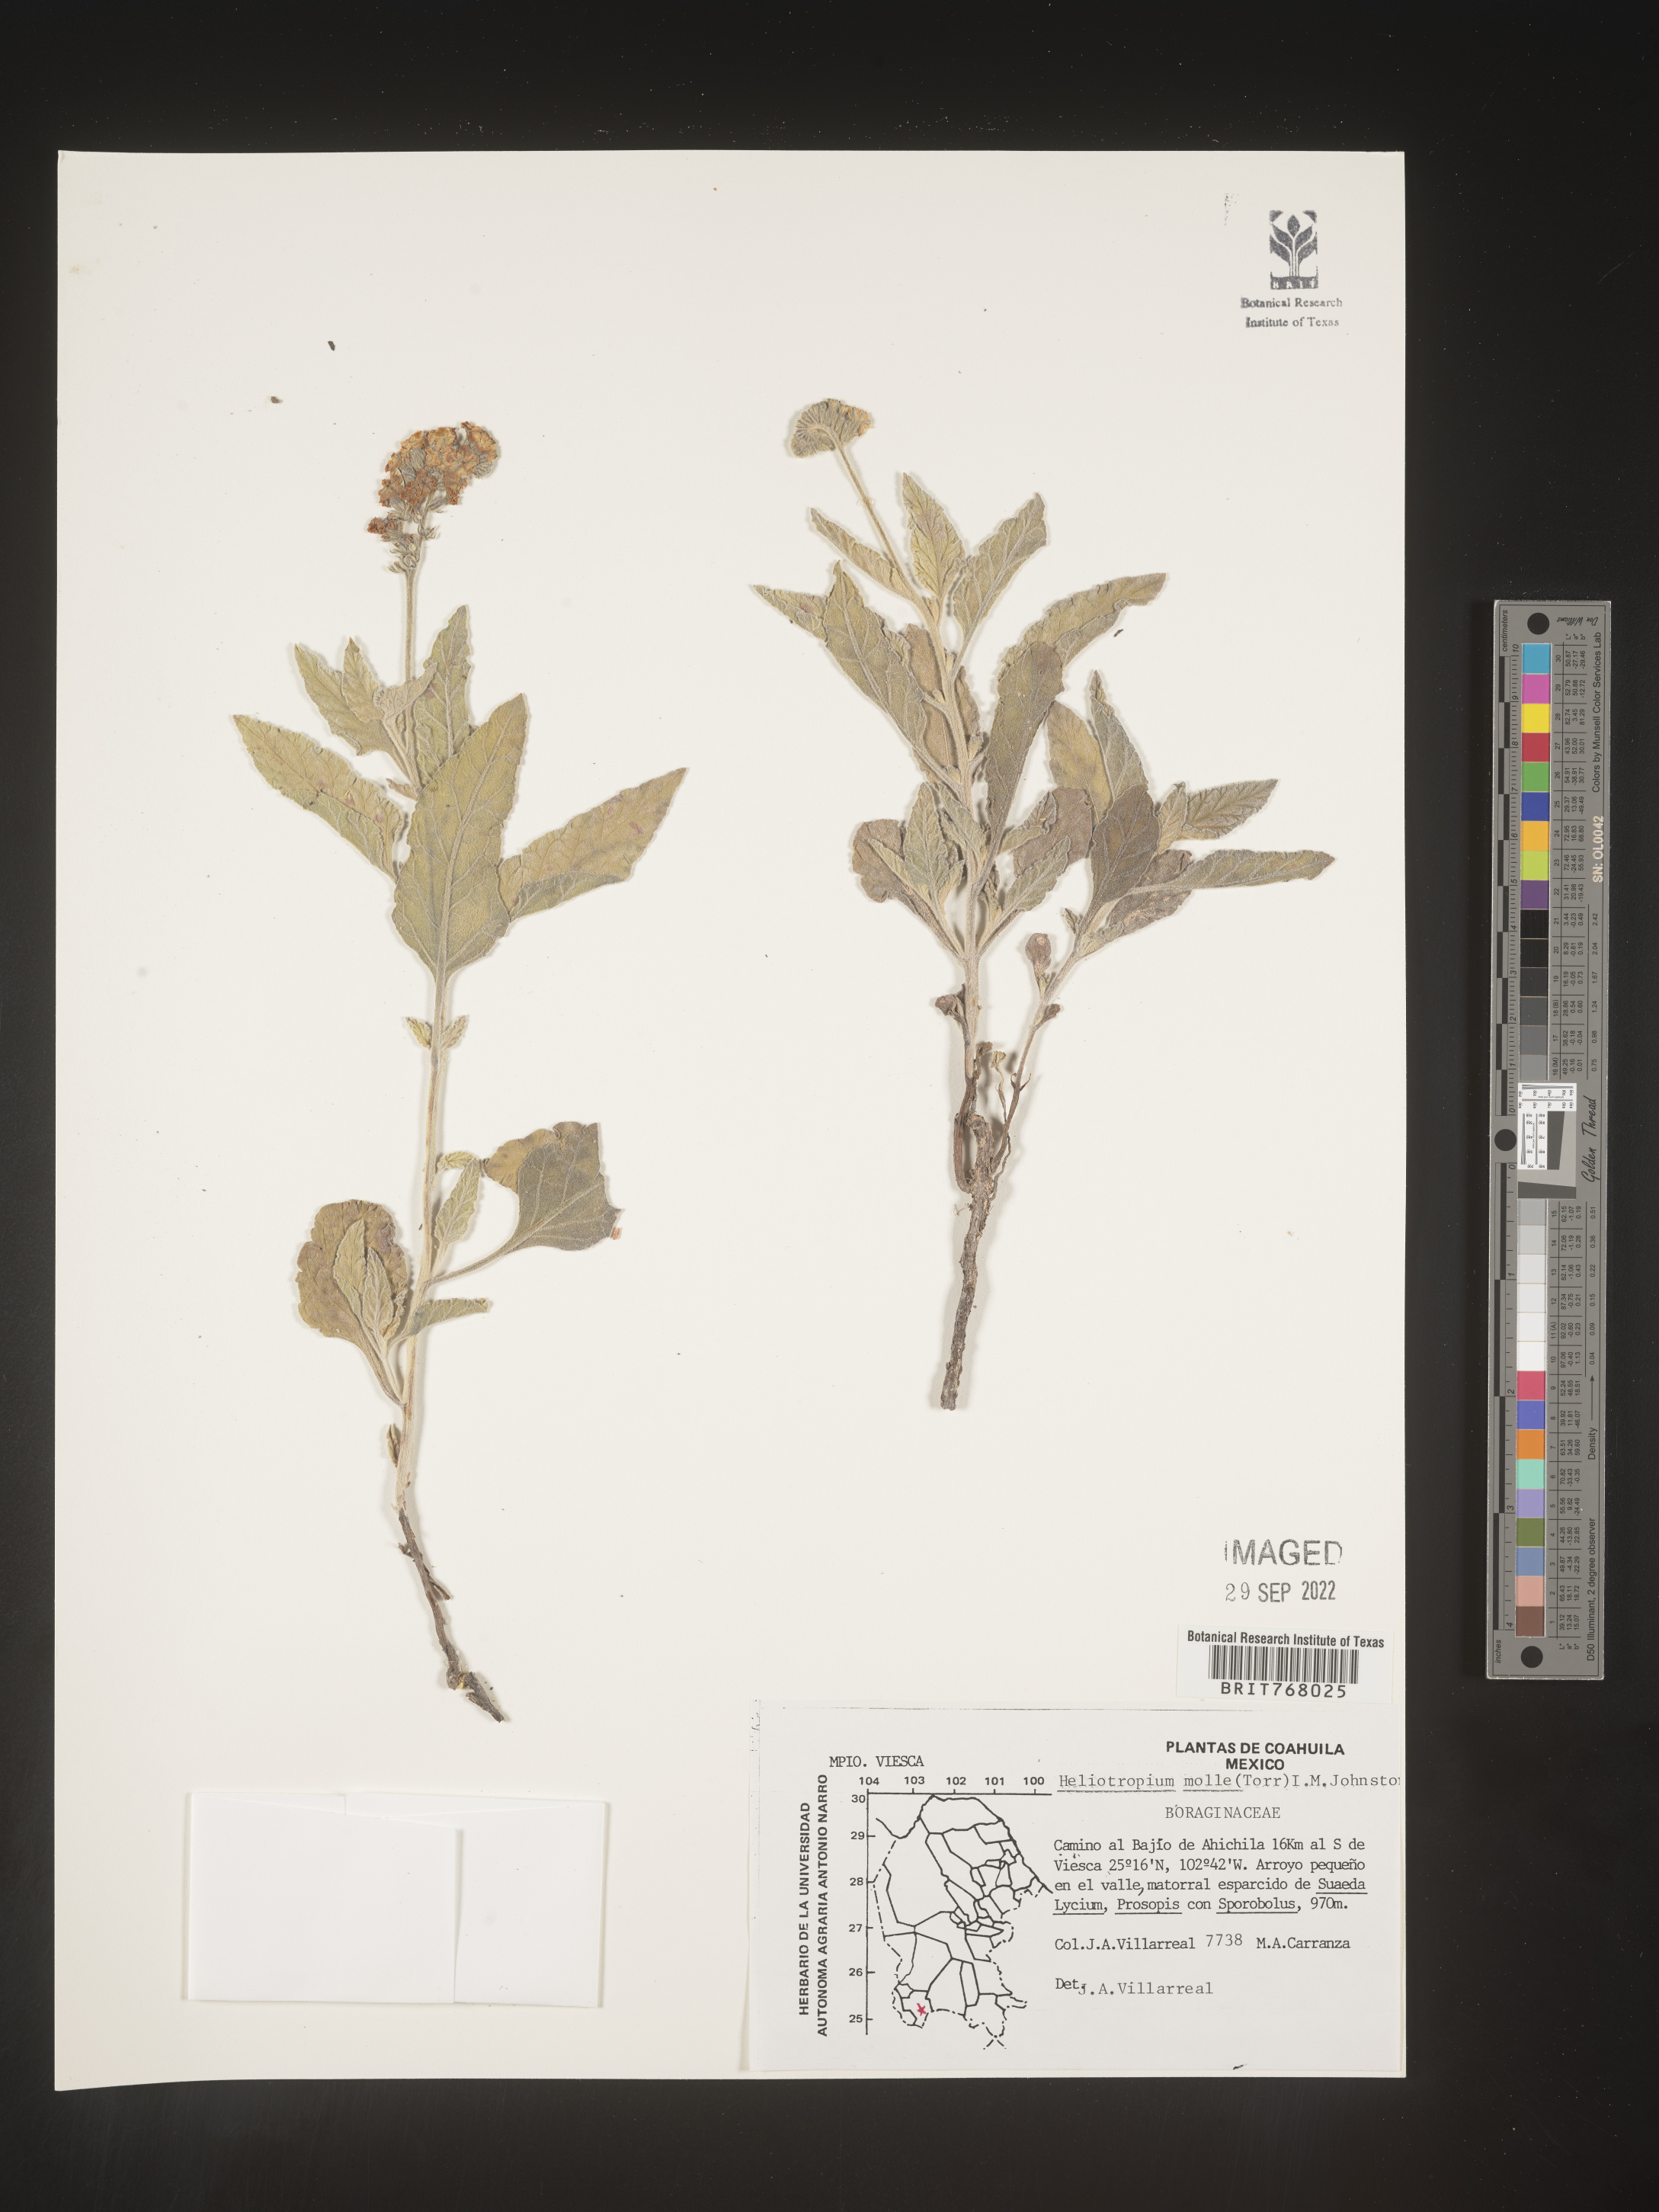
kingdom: Plantae
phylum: Tracheophyta
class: Magnoliopsida
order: Boraginales
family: Heliotropiaceae
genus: Heliotropium
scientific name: Heliotropium
